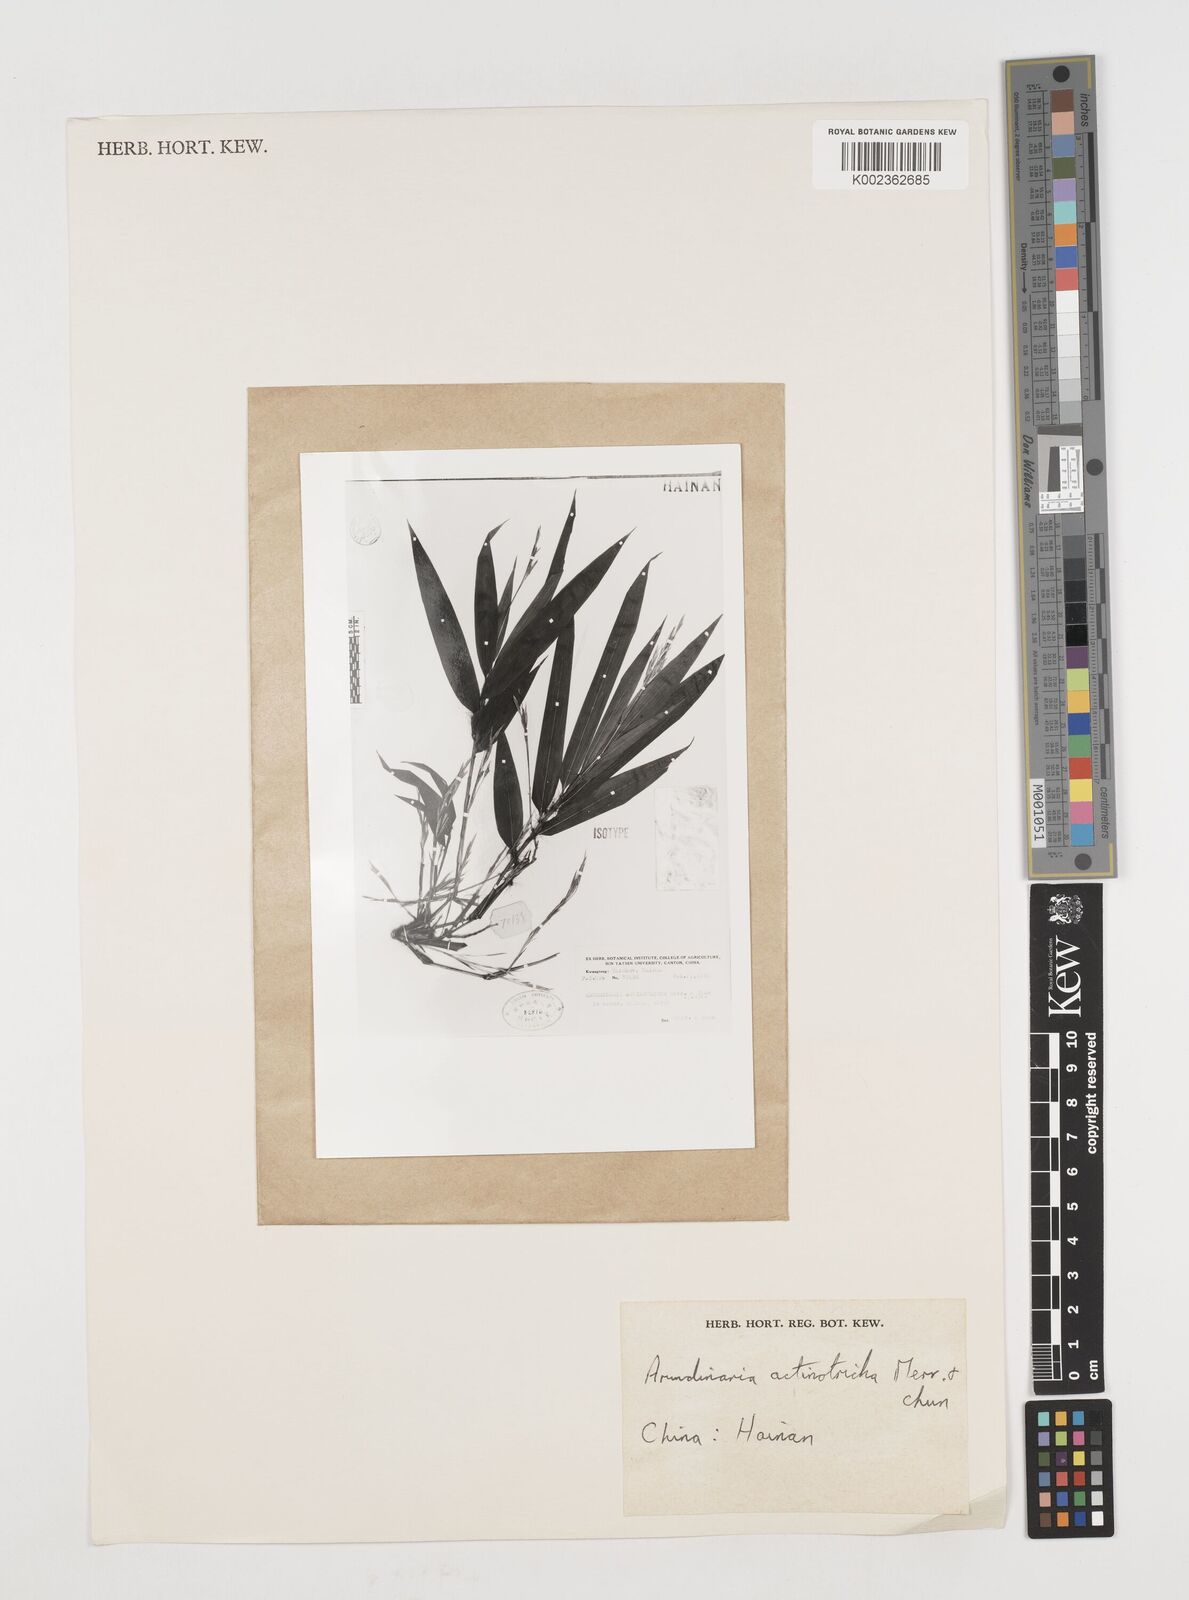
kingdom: Plantae
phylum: Tracheophyta
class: Liliopsida
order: Poales
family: Poaceae
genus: Ampelocalamus
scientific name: Ampelocalamus actinotrichus
